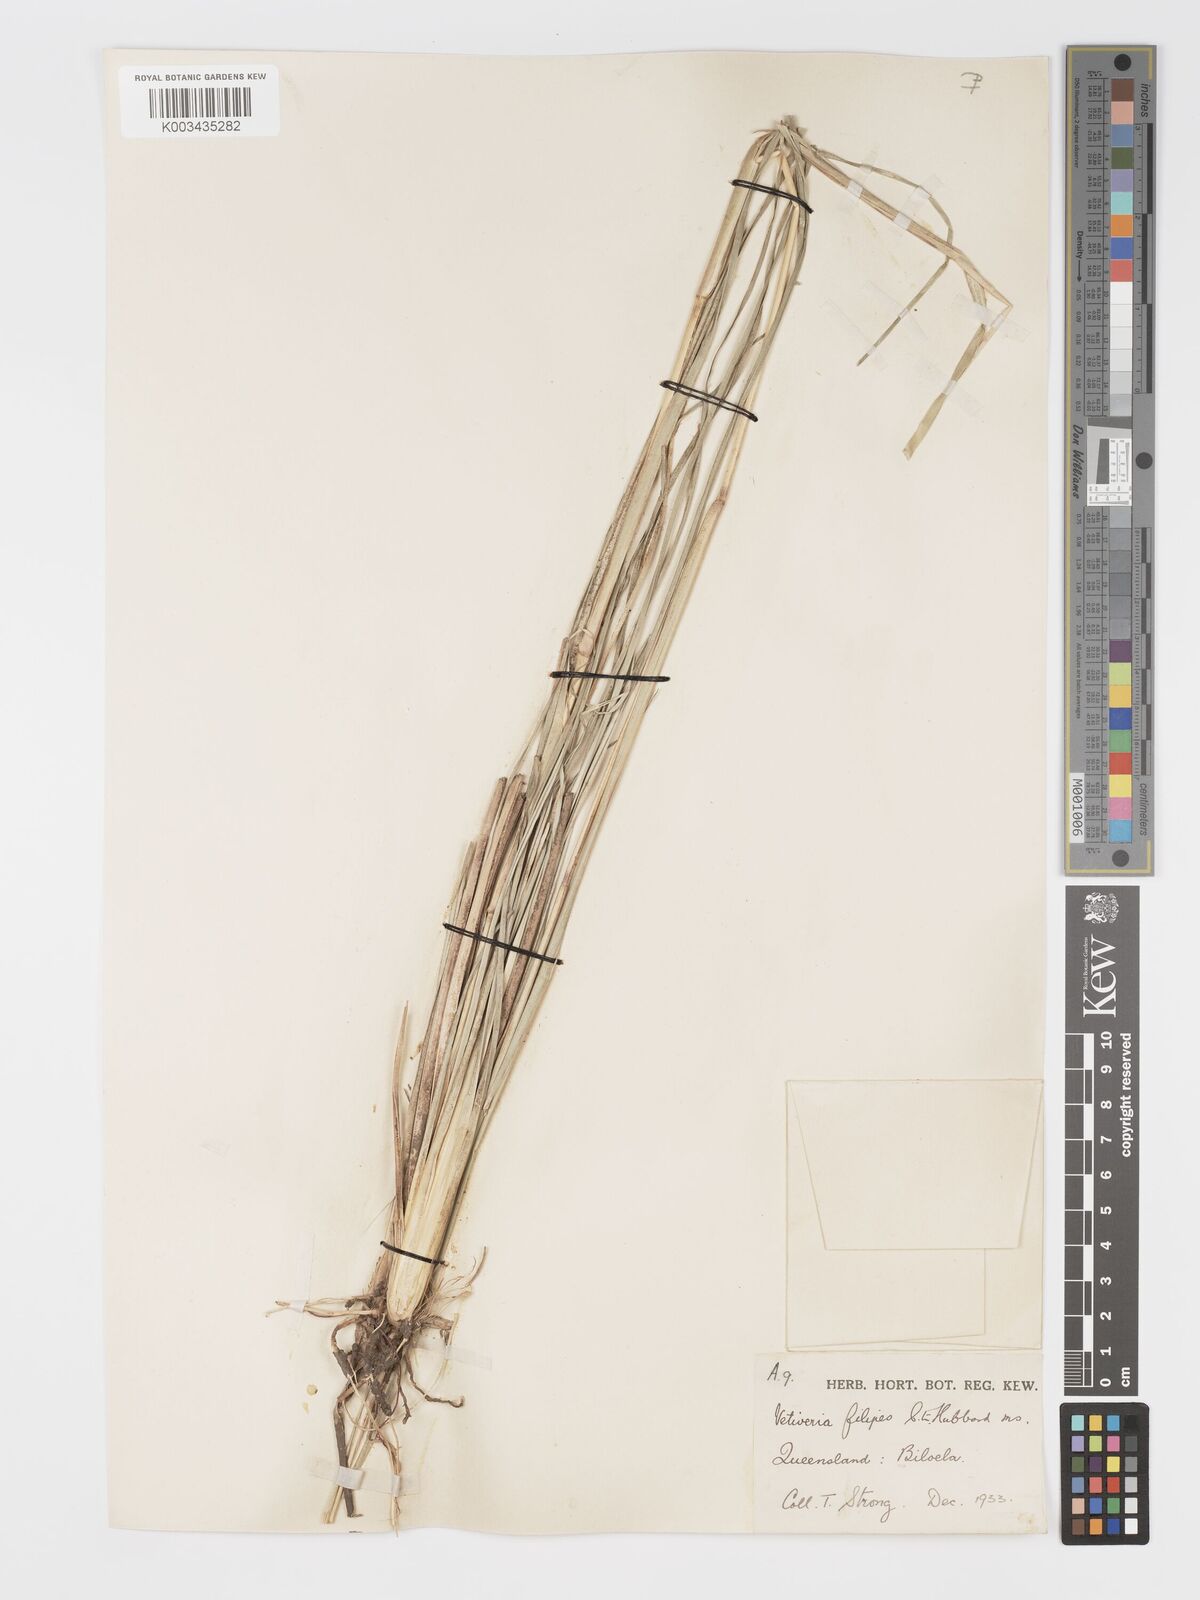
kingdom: Plantae
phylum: Tracheophyta
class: Liliopsida
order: Poales
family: Poaceae
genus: Chrysopogon
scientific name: Chrysopogon filipes
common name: Australian vetiver
